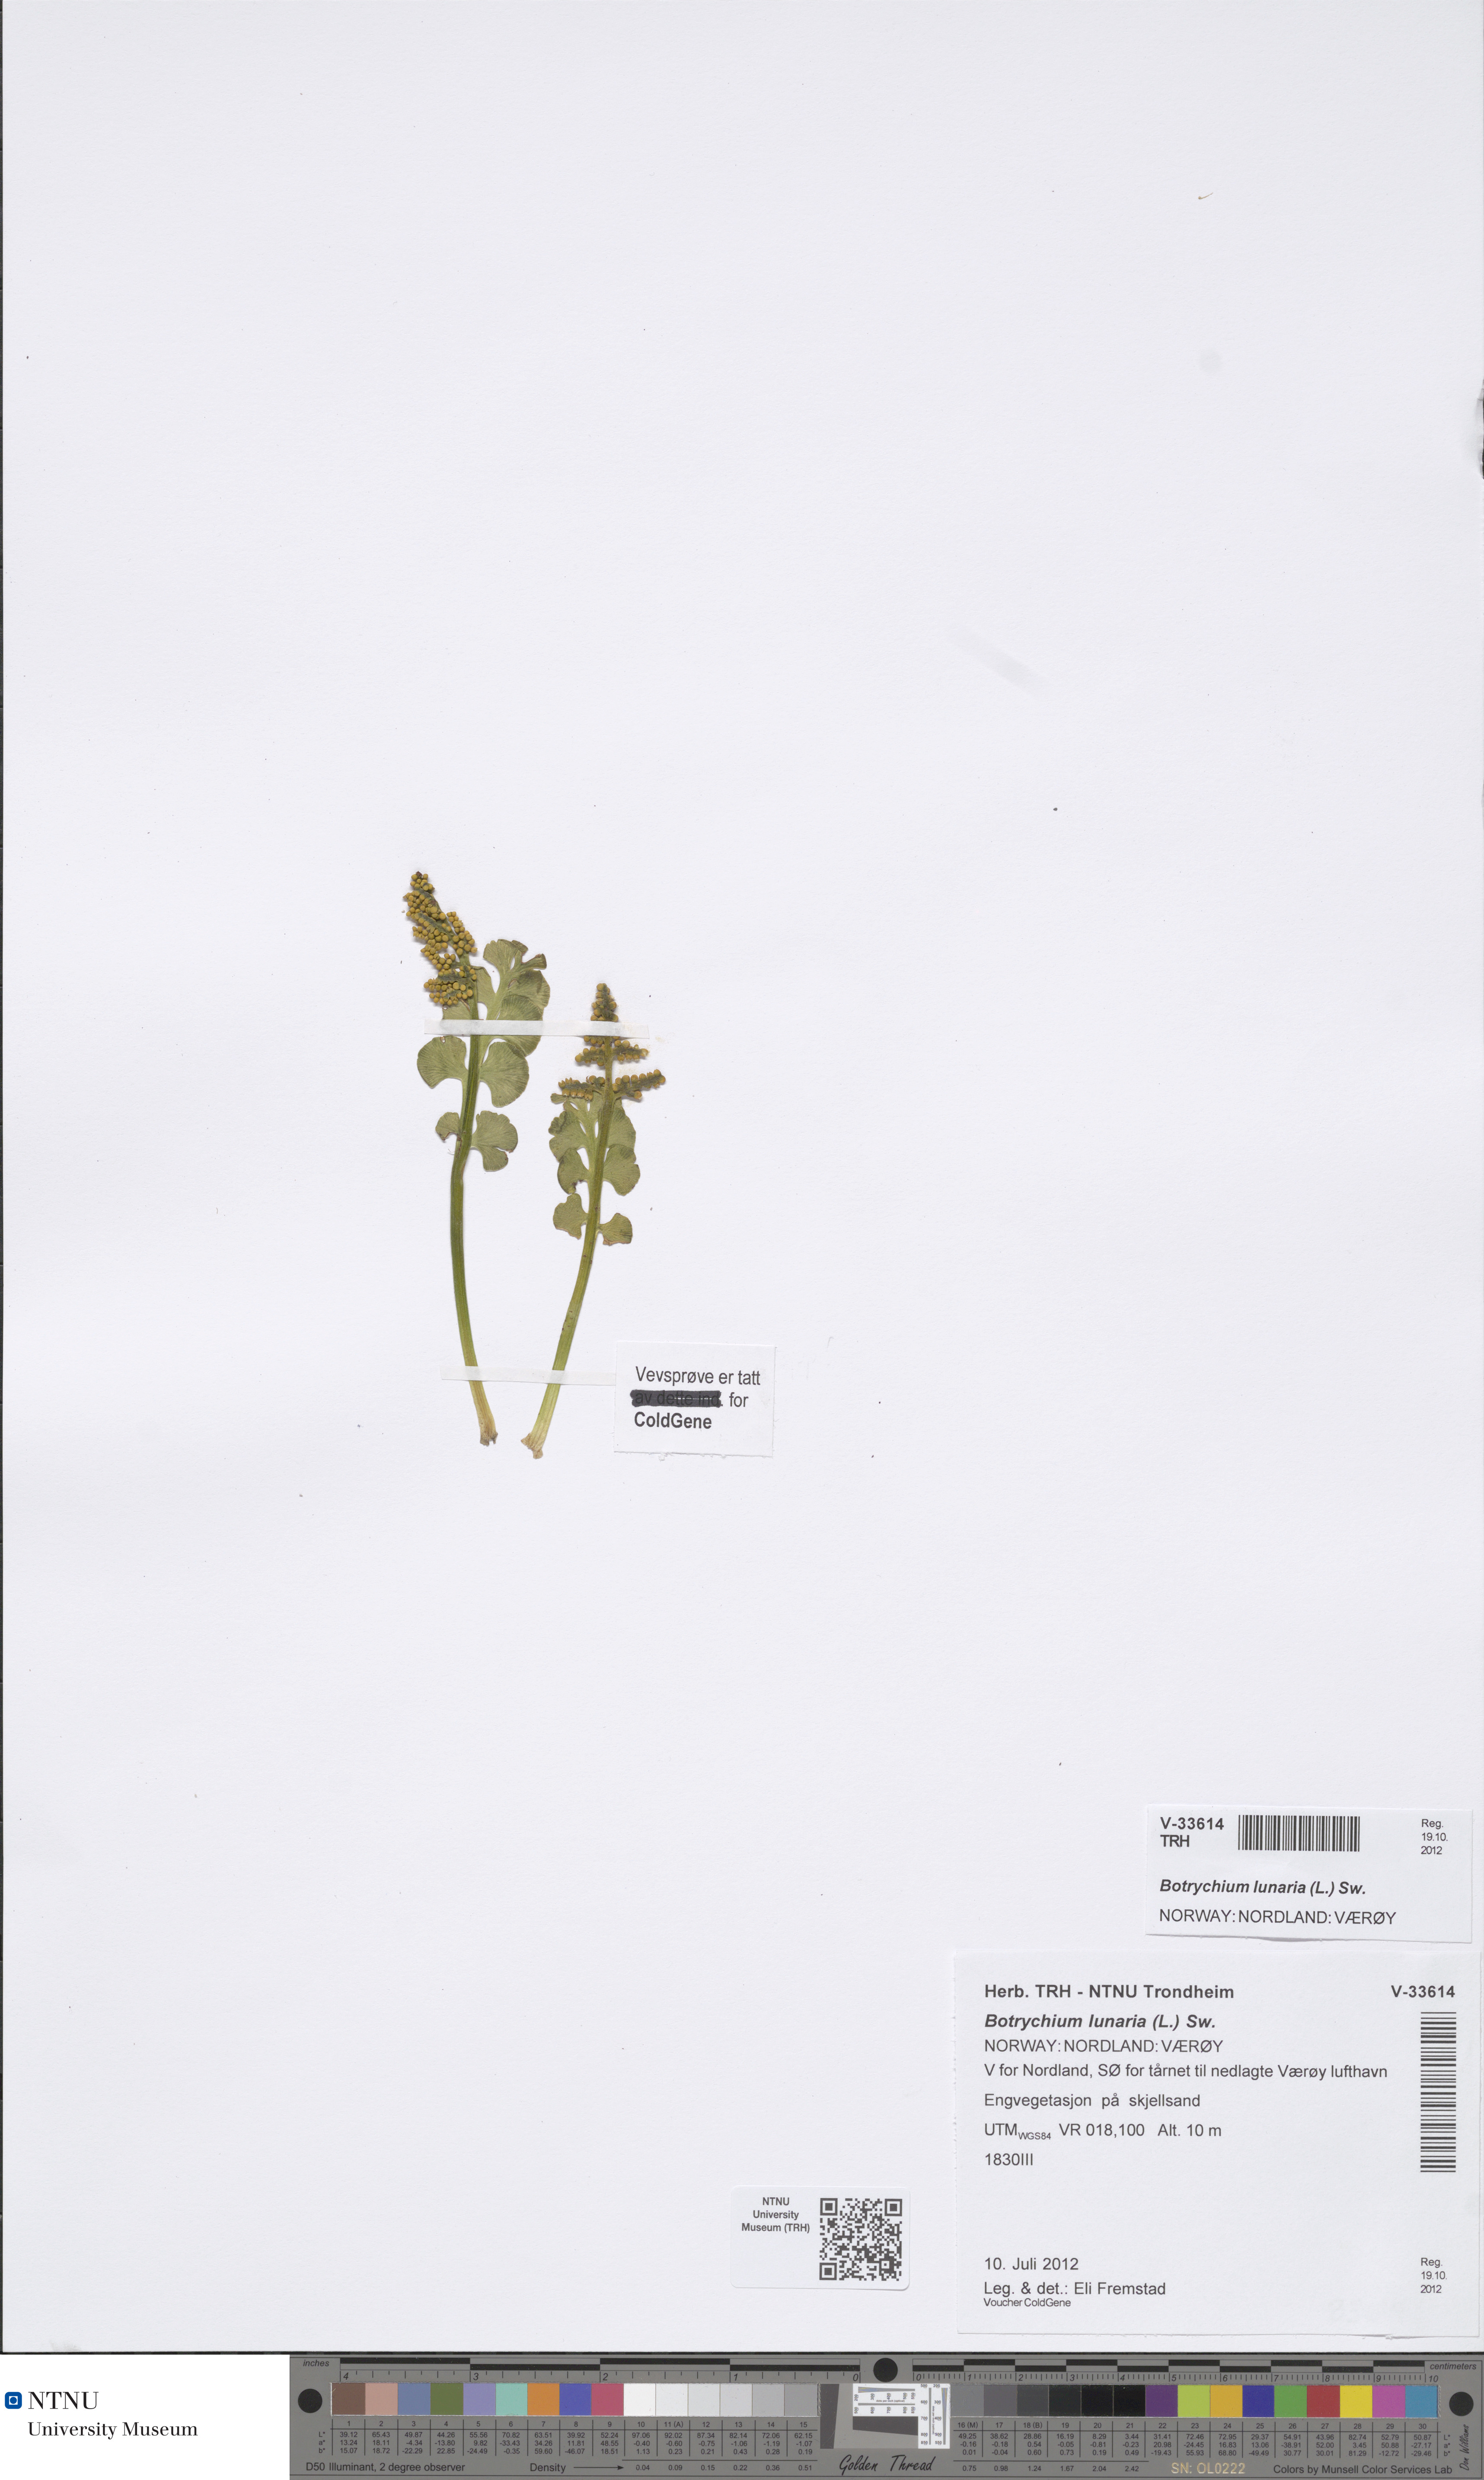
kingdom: Plantae
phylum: Tracheophyta
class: Polypodiopsida
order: Ophioglossales
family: Ophioglossaceae
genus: Botrychium
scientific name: Botrychium lunaria
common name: Moonwort
